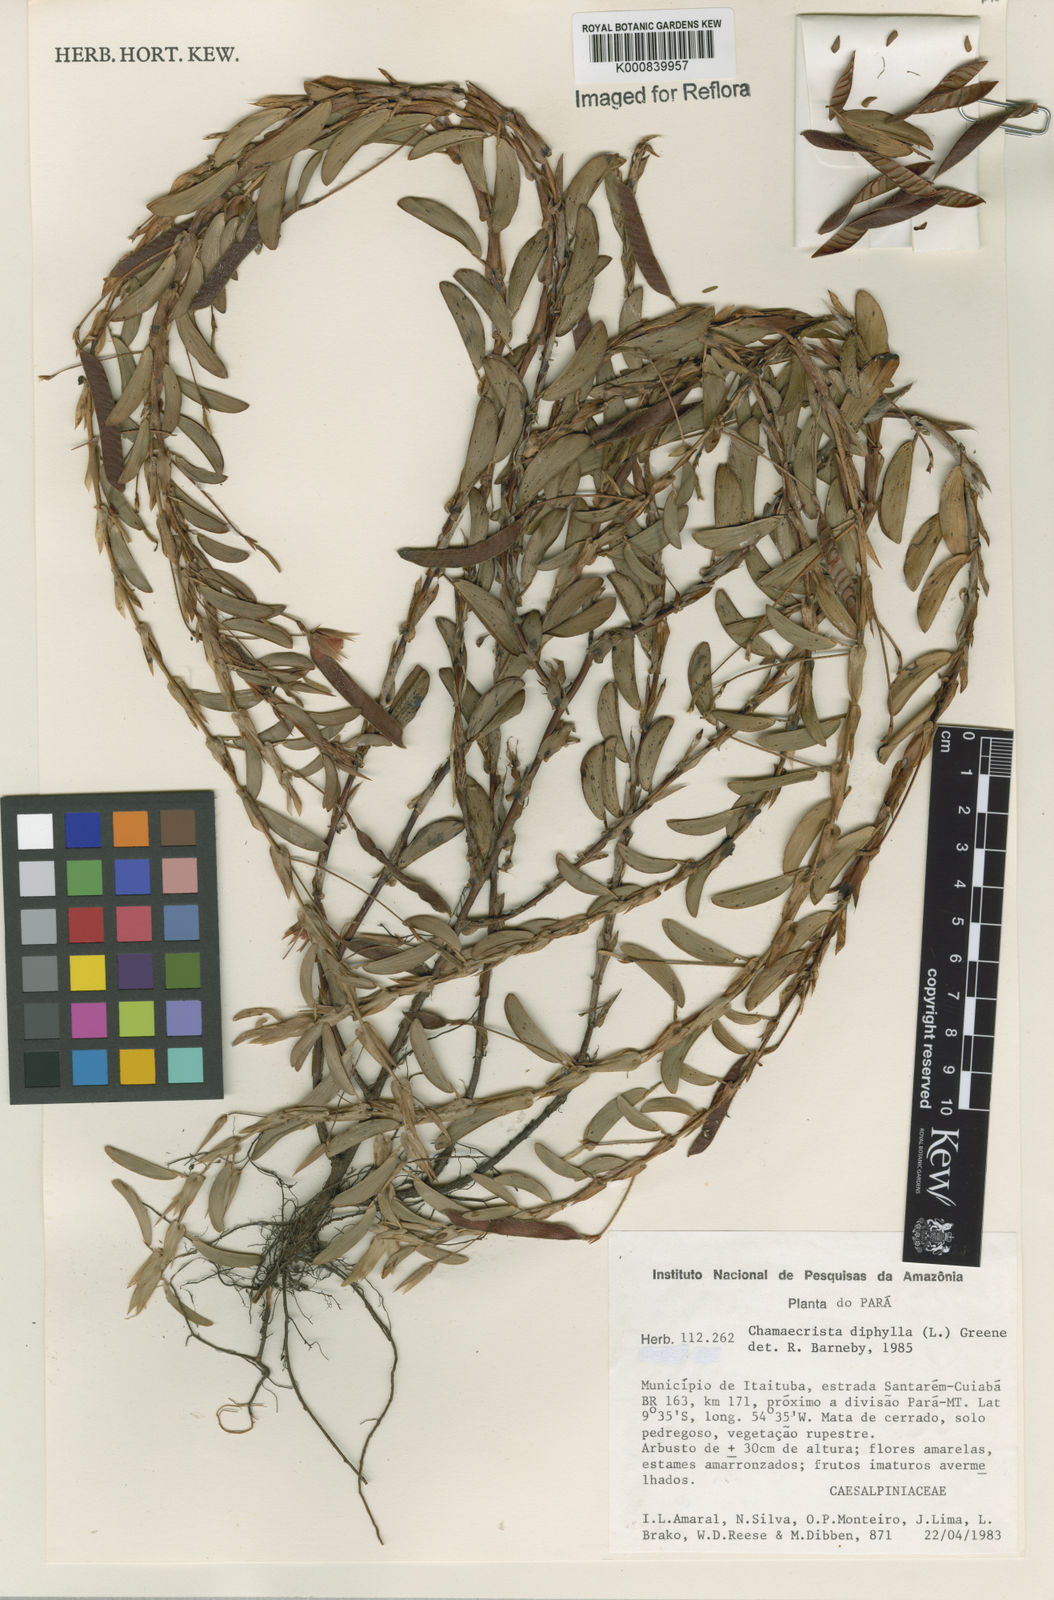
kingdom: Plantae
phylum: Tracheophyta
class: Magnoliopsida
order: Fabales
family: Fabaceae
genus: Chamaecrista
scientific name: Chamaecrista diphylla
